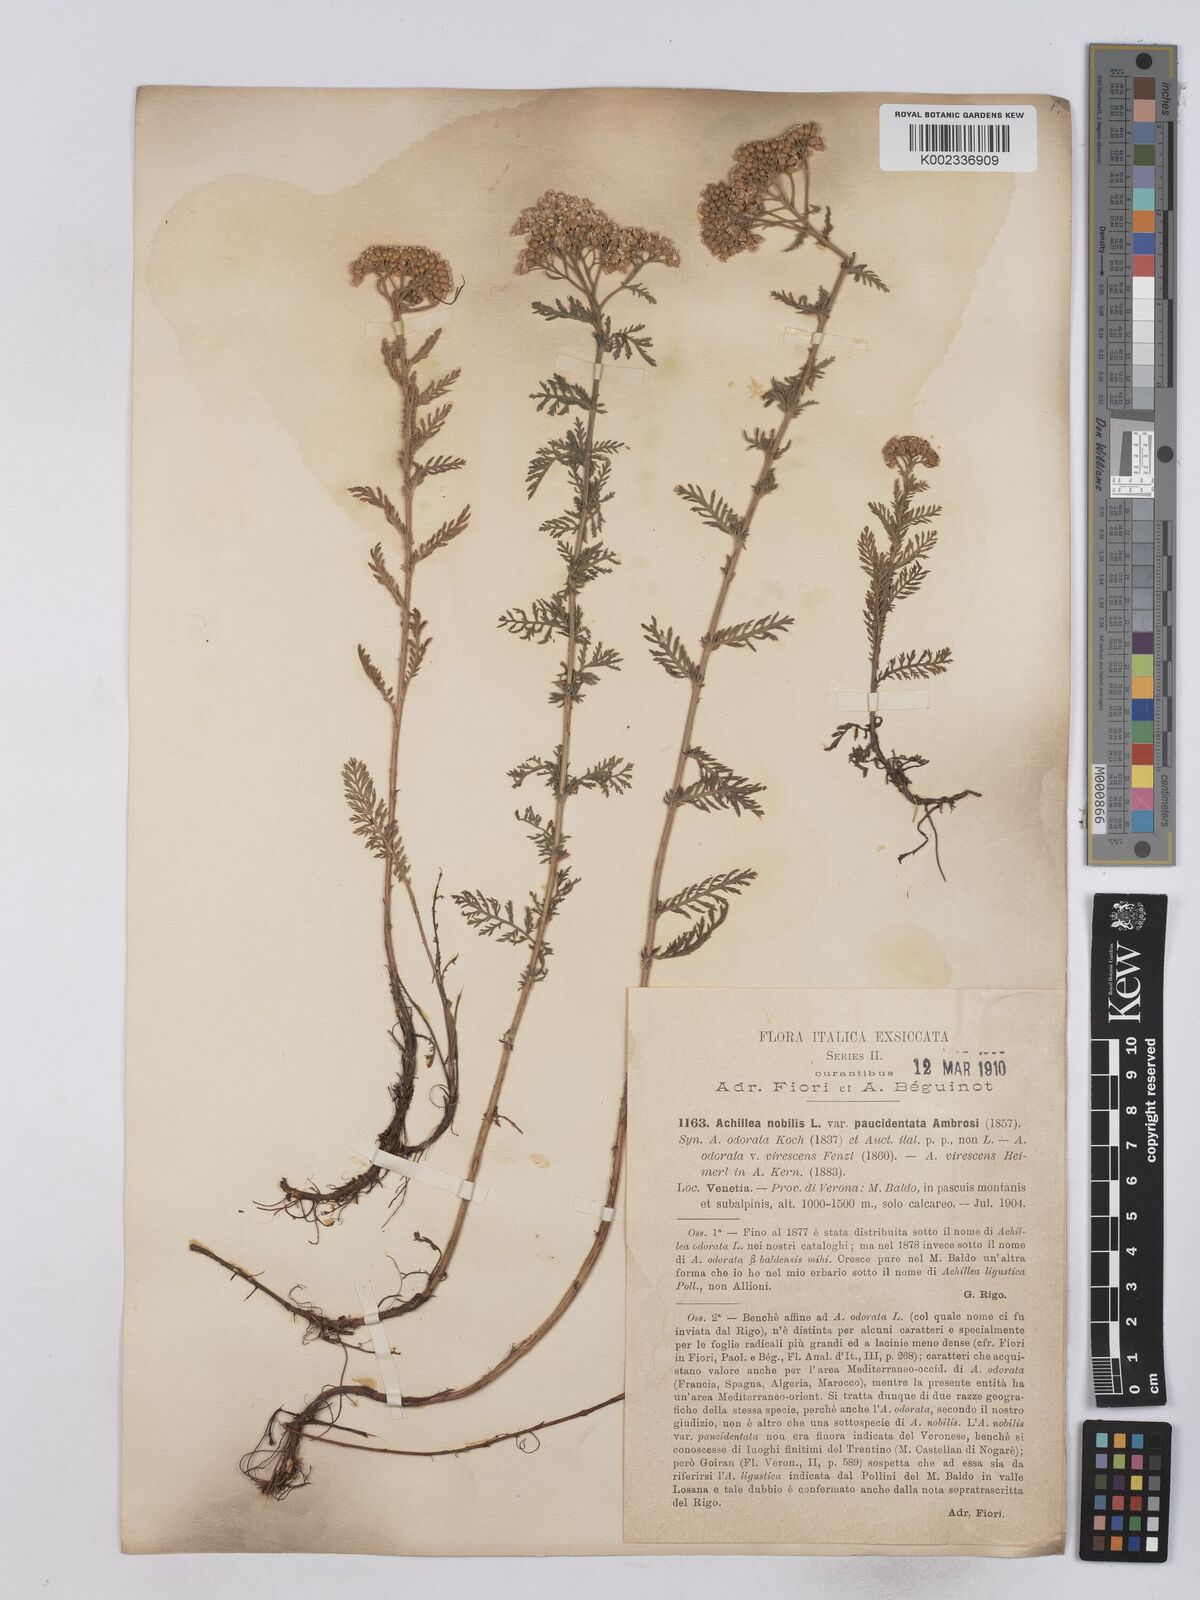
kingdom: Plantae
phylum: Tracheophyta
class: Magnoliopsida
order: Asterales
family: Asteraceae
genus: Achillea
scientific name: Achillea odorata
